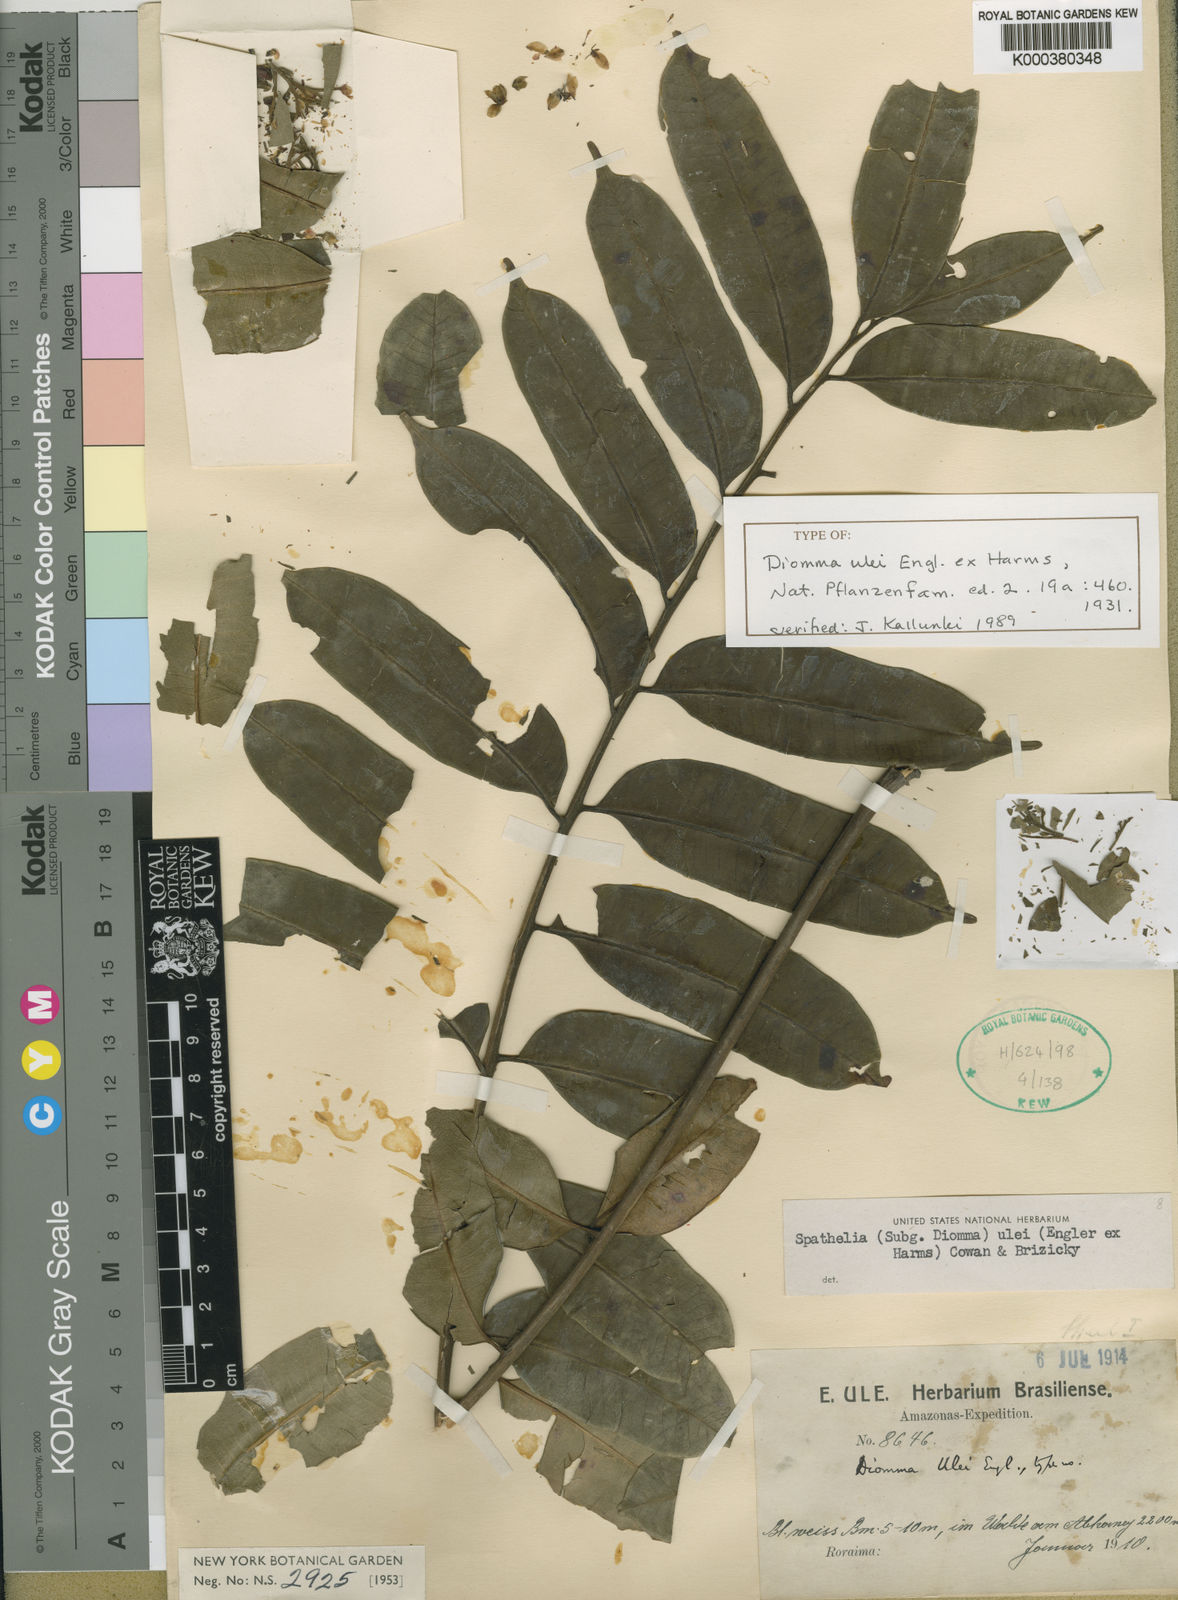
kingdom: Plantae
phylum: Tracheophyta
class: Magnoliopsida
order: Sapindales
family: Rutaceae
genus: Sohnreyia
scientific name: Sohnreyia ulei
